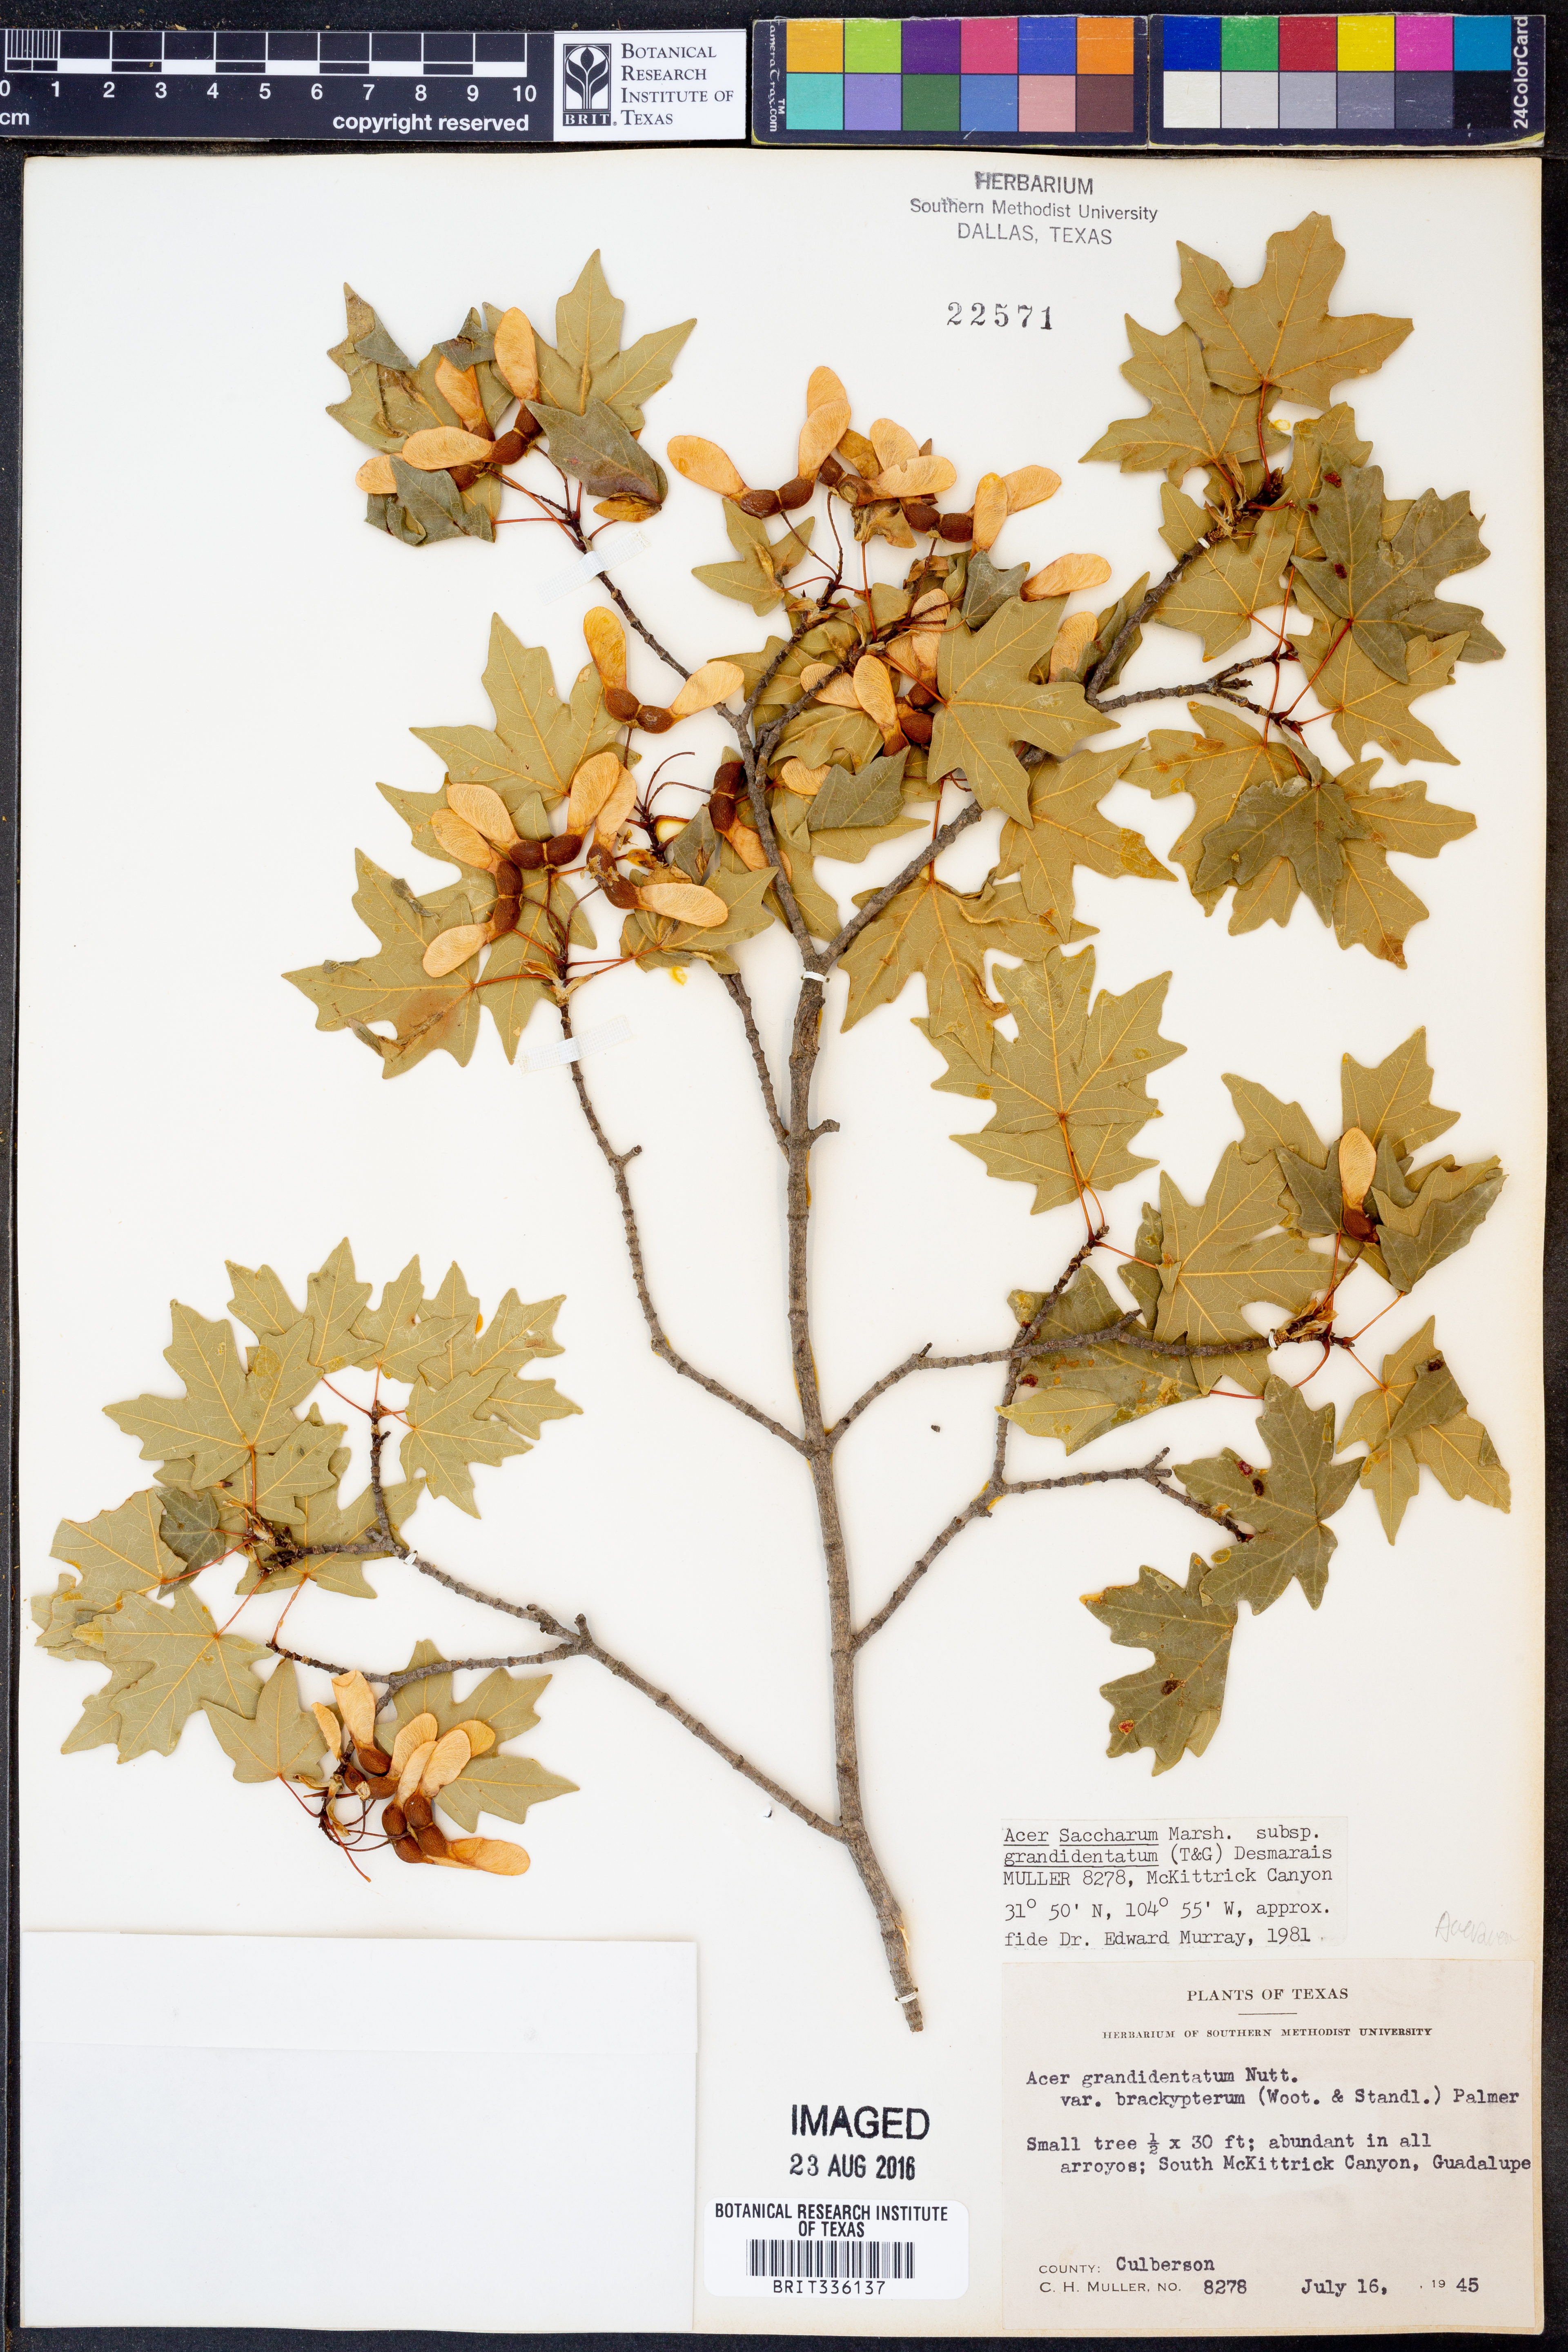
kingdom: Plantae
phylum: Tracheophyta
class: Magnoliopsida
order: Sapindales
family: Sapindaceae
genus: Acer
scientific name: Acer grandidentatum
